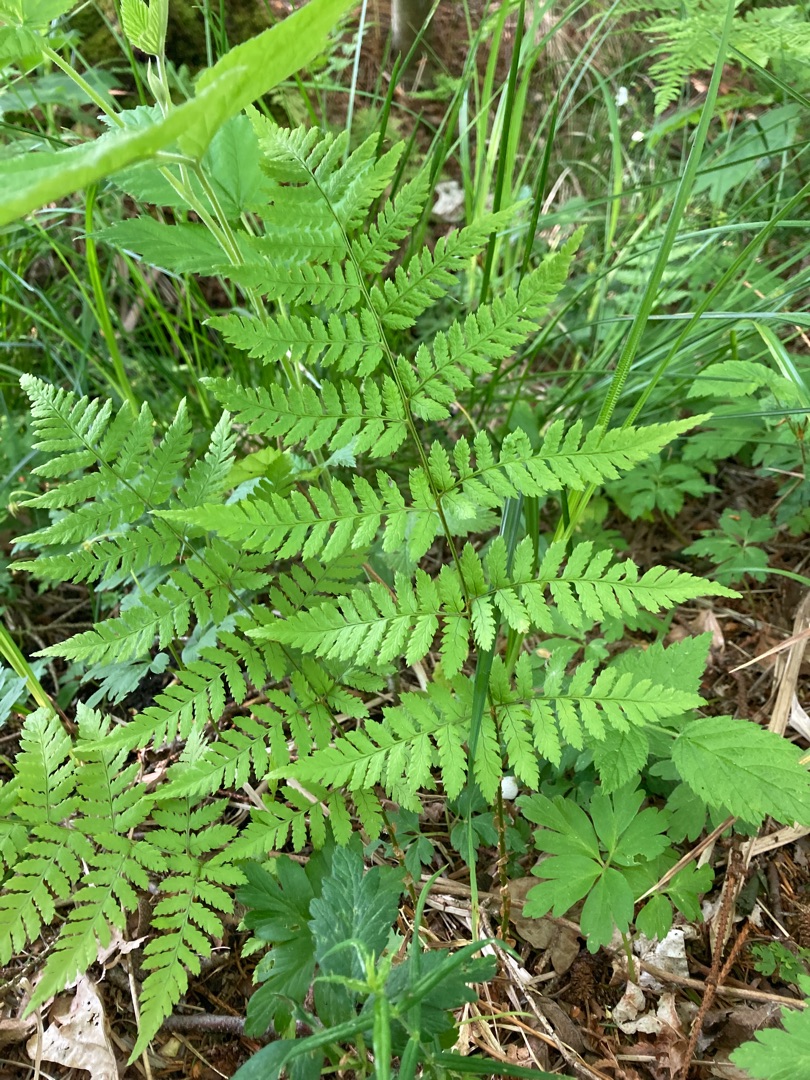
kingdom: Plantae
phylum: Tracheophyta
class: Polypodiopsida
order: Polypodiales
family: Dryopteridaceae
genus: Dryopteris
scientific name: Dryopteris carthusiana
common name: Smalbladet mangeløv
